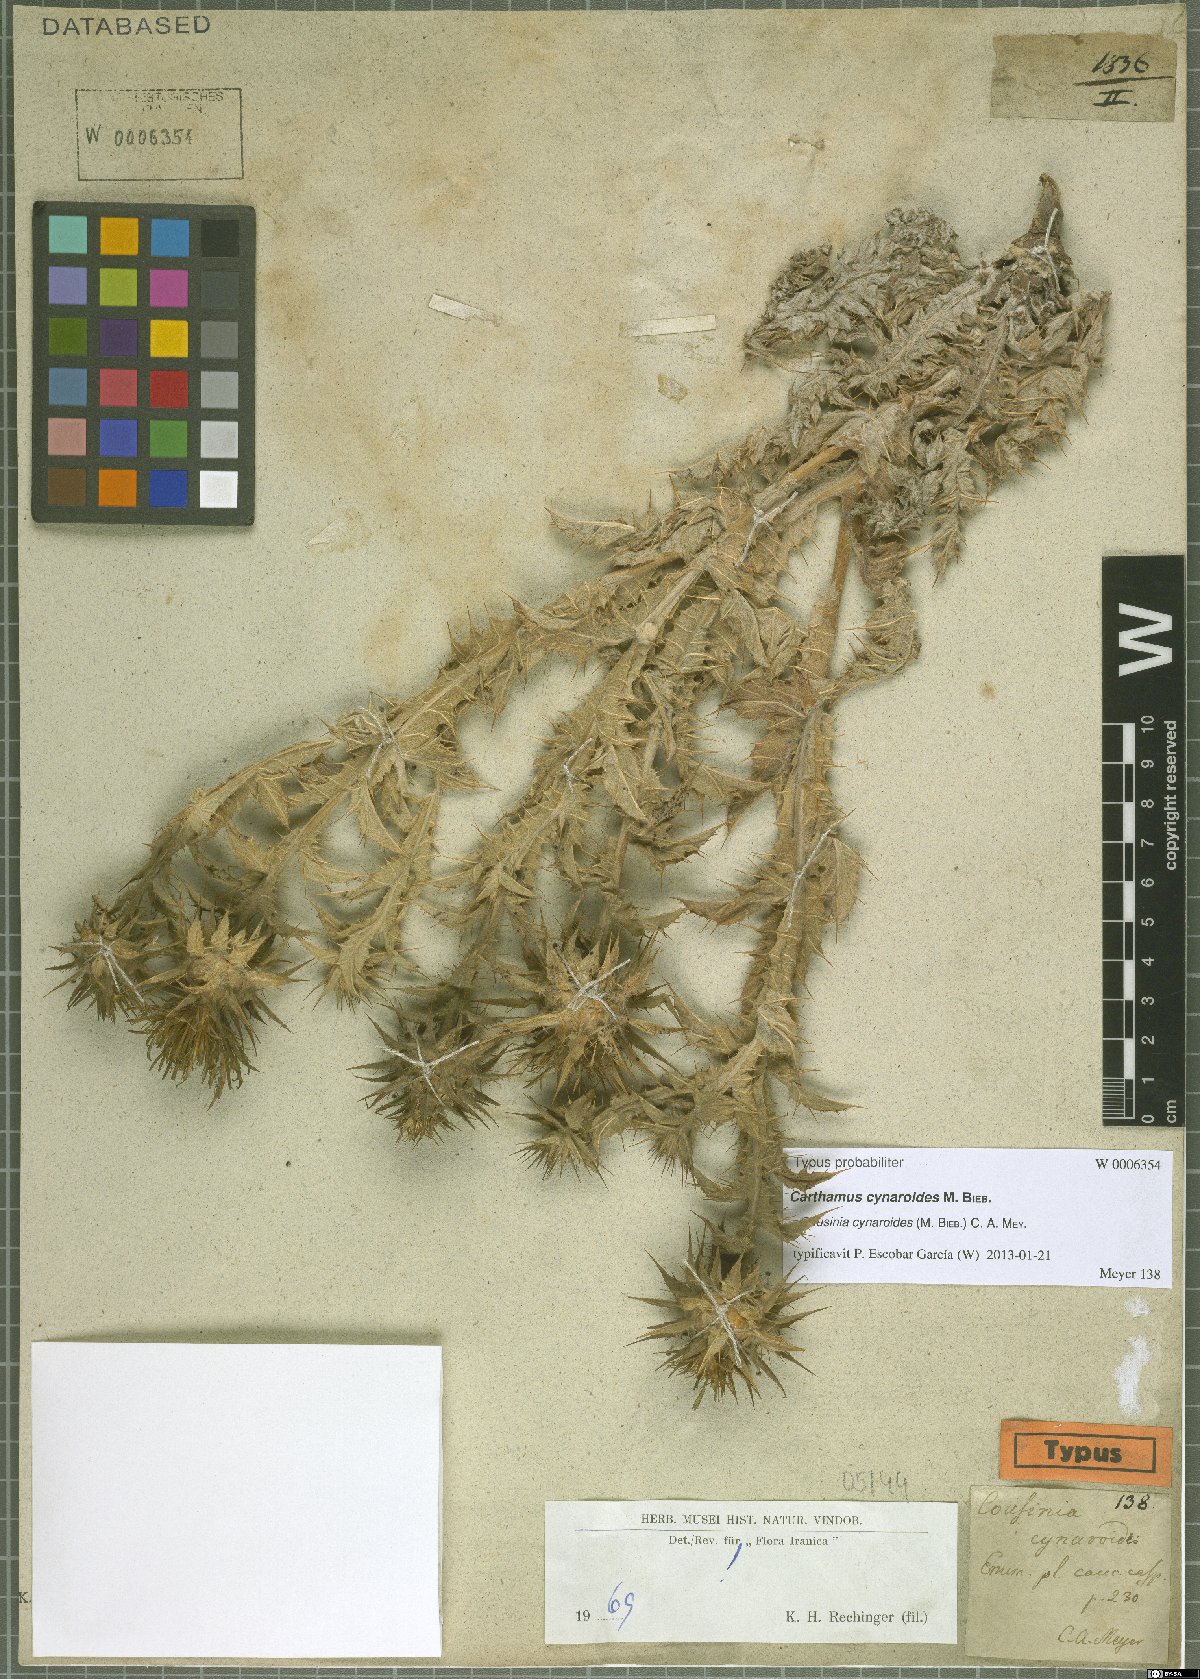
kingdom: Plantae
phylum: Tracheophyta
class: Magnoliopsida
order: Asterales
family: Asteraceae
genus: Cousinia
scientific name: Cousinia cynaroides
